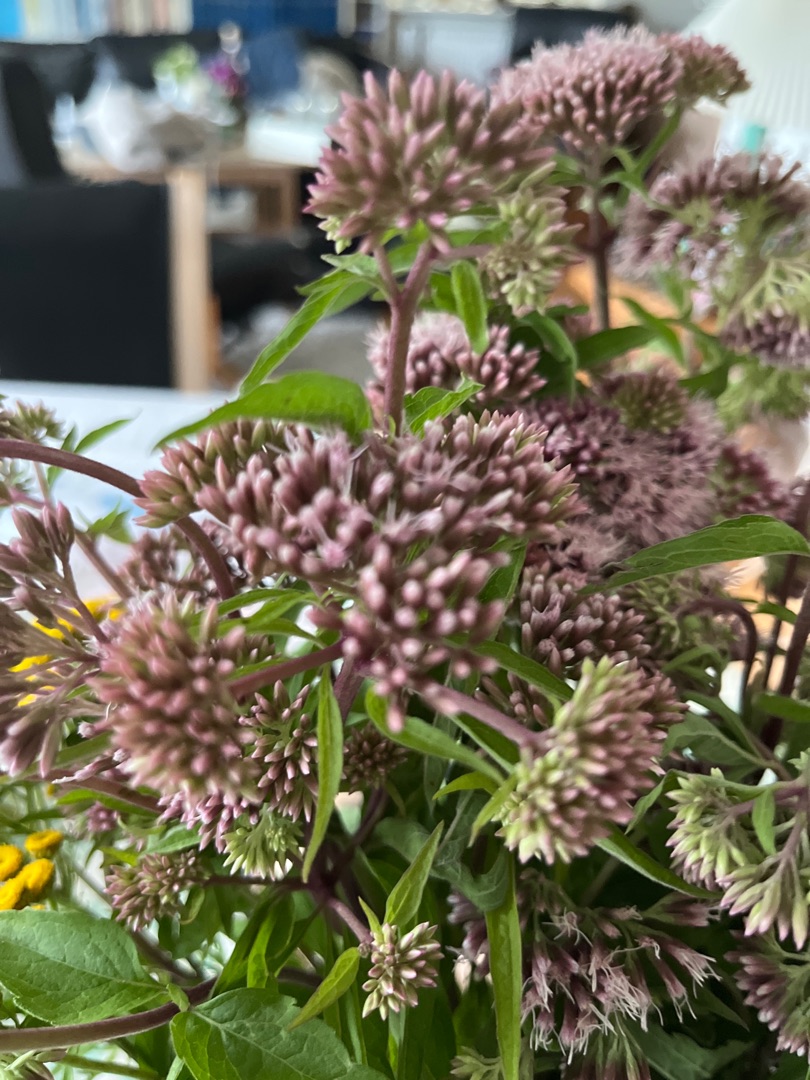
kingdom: Plantae
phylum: Tracheophyta
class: Magnoliopsida
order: Asterales
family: Asteraceae
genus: Eupatorium
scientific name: Eupatorium cannabinum
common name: Hjortetrøst
